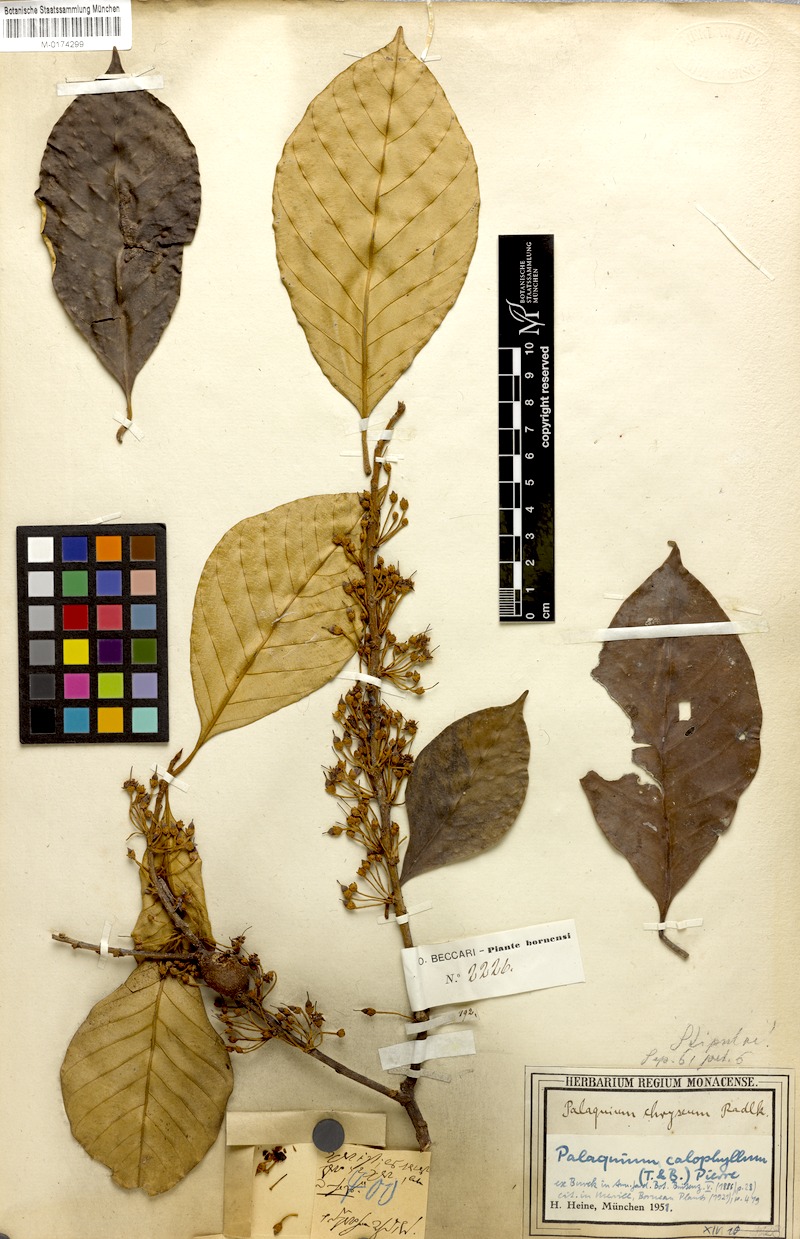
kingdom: Plantae
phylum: Tracheophyta
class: Magnoliopsida
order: Ericales
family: Sapotaceae
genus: Palaquium
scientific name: Palaquium
